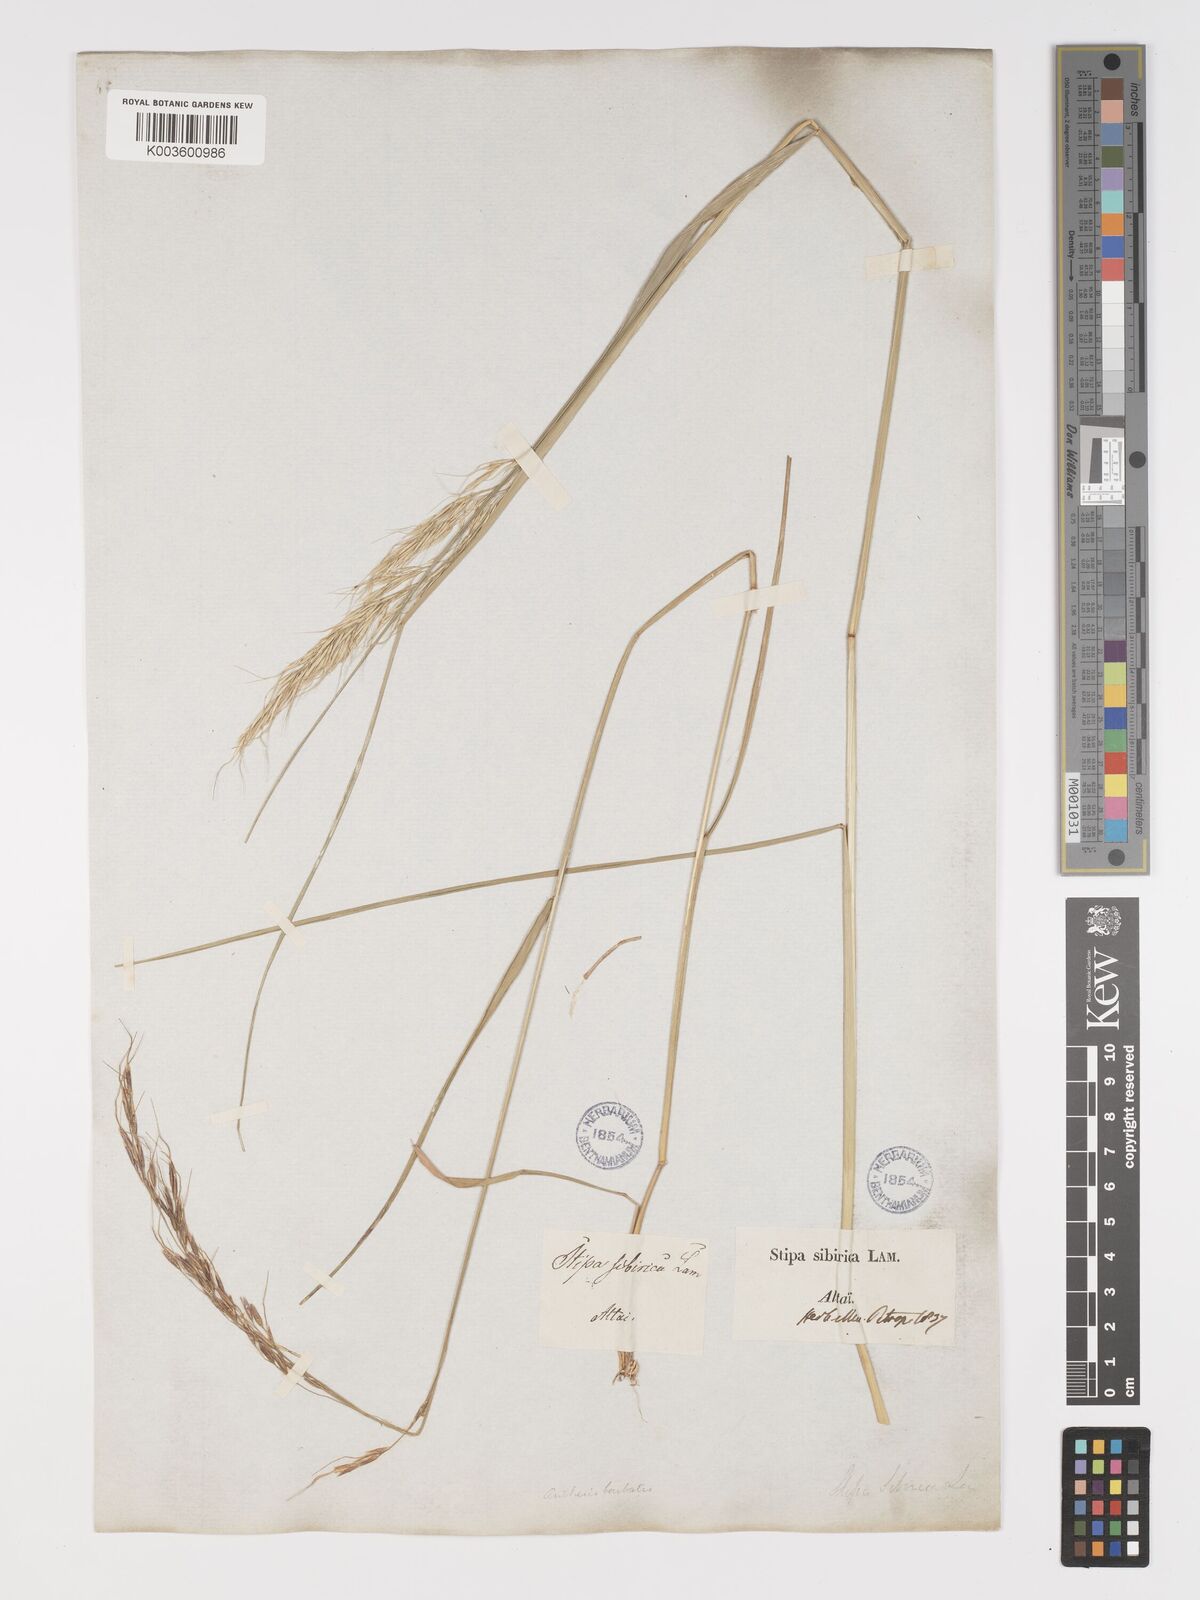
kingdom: Plantae
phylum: Tracheophyta
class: Liliopsida
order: Poales
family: Poaceae
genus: Achnatherum
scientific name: Achnatherum sibiricum
